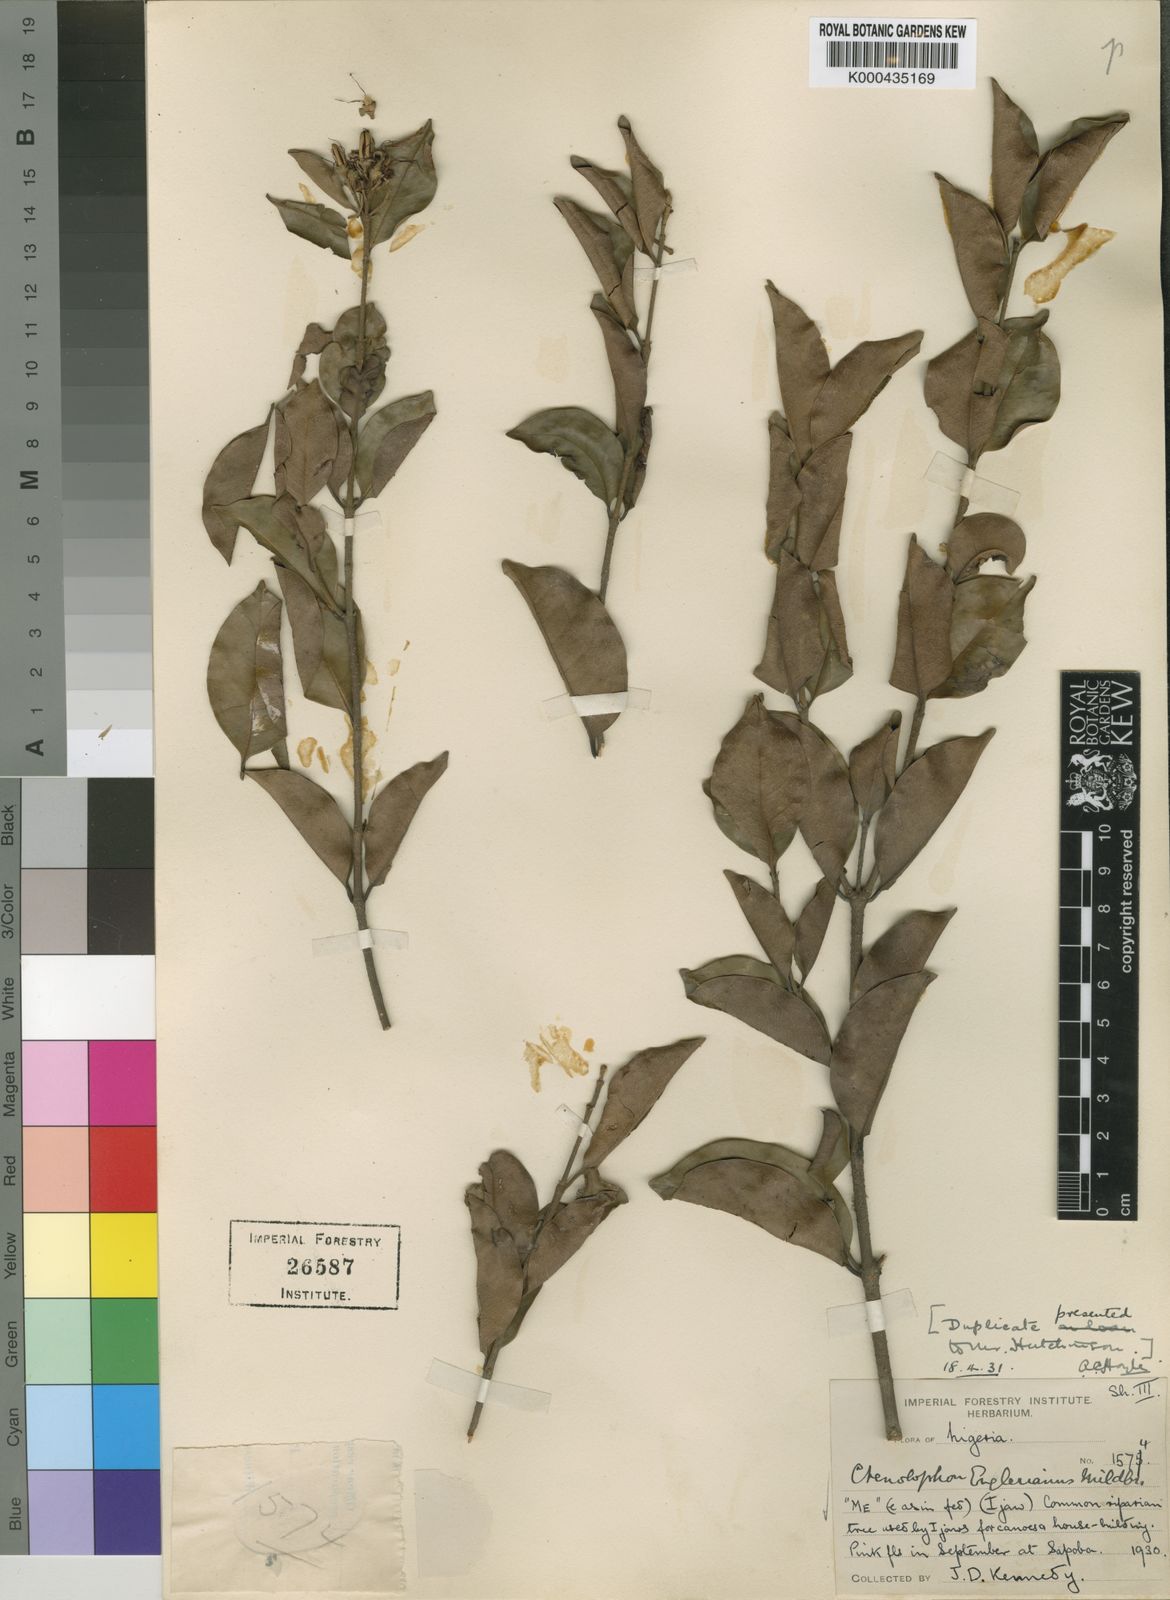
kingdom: Plantae
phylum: Tracheophyta
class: Magnoliopsida
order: Malpighiales
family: Ctenolophonaceae
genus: Ctenolophon
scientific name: Ctenolophon englerianus
